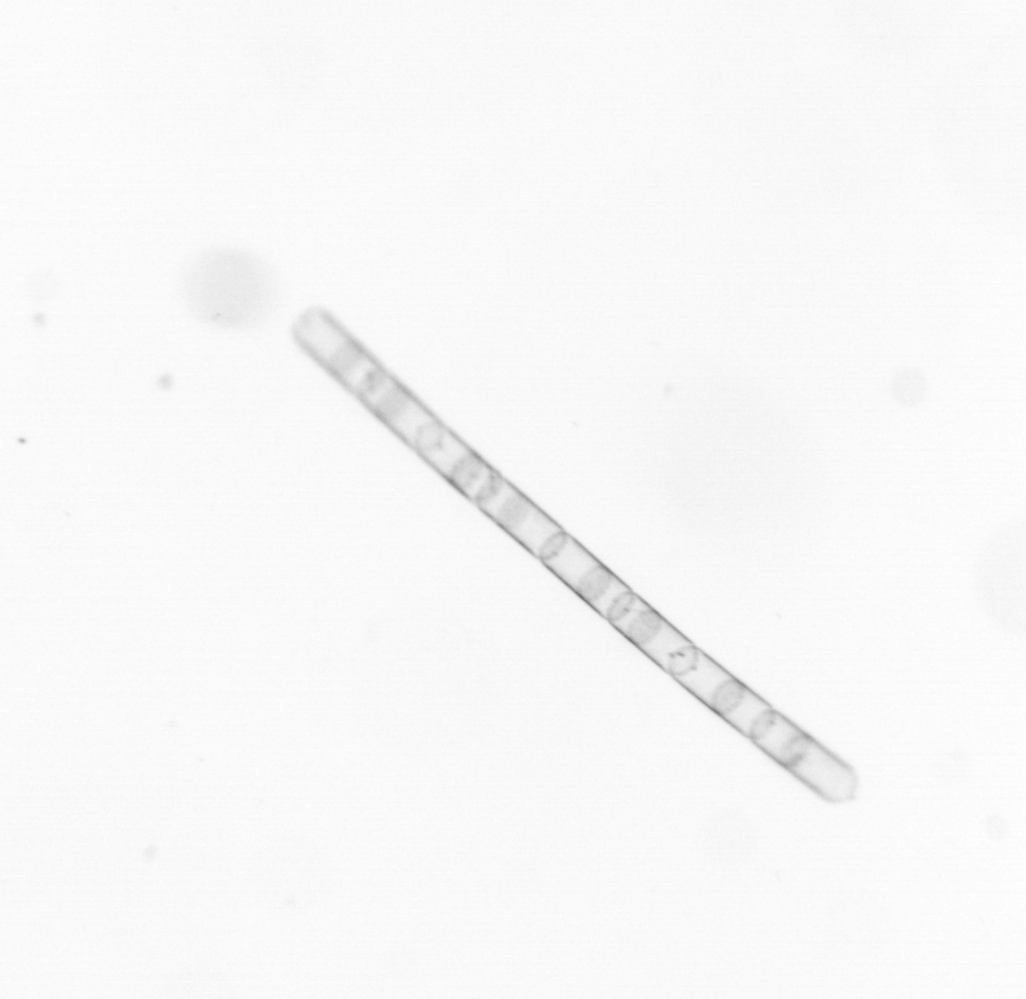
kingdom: Chromista
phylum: Ochrophyta
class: Bacillariophyceae
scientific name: Bacillariophyceae
